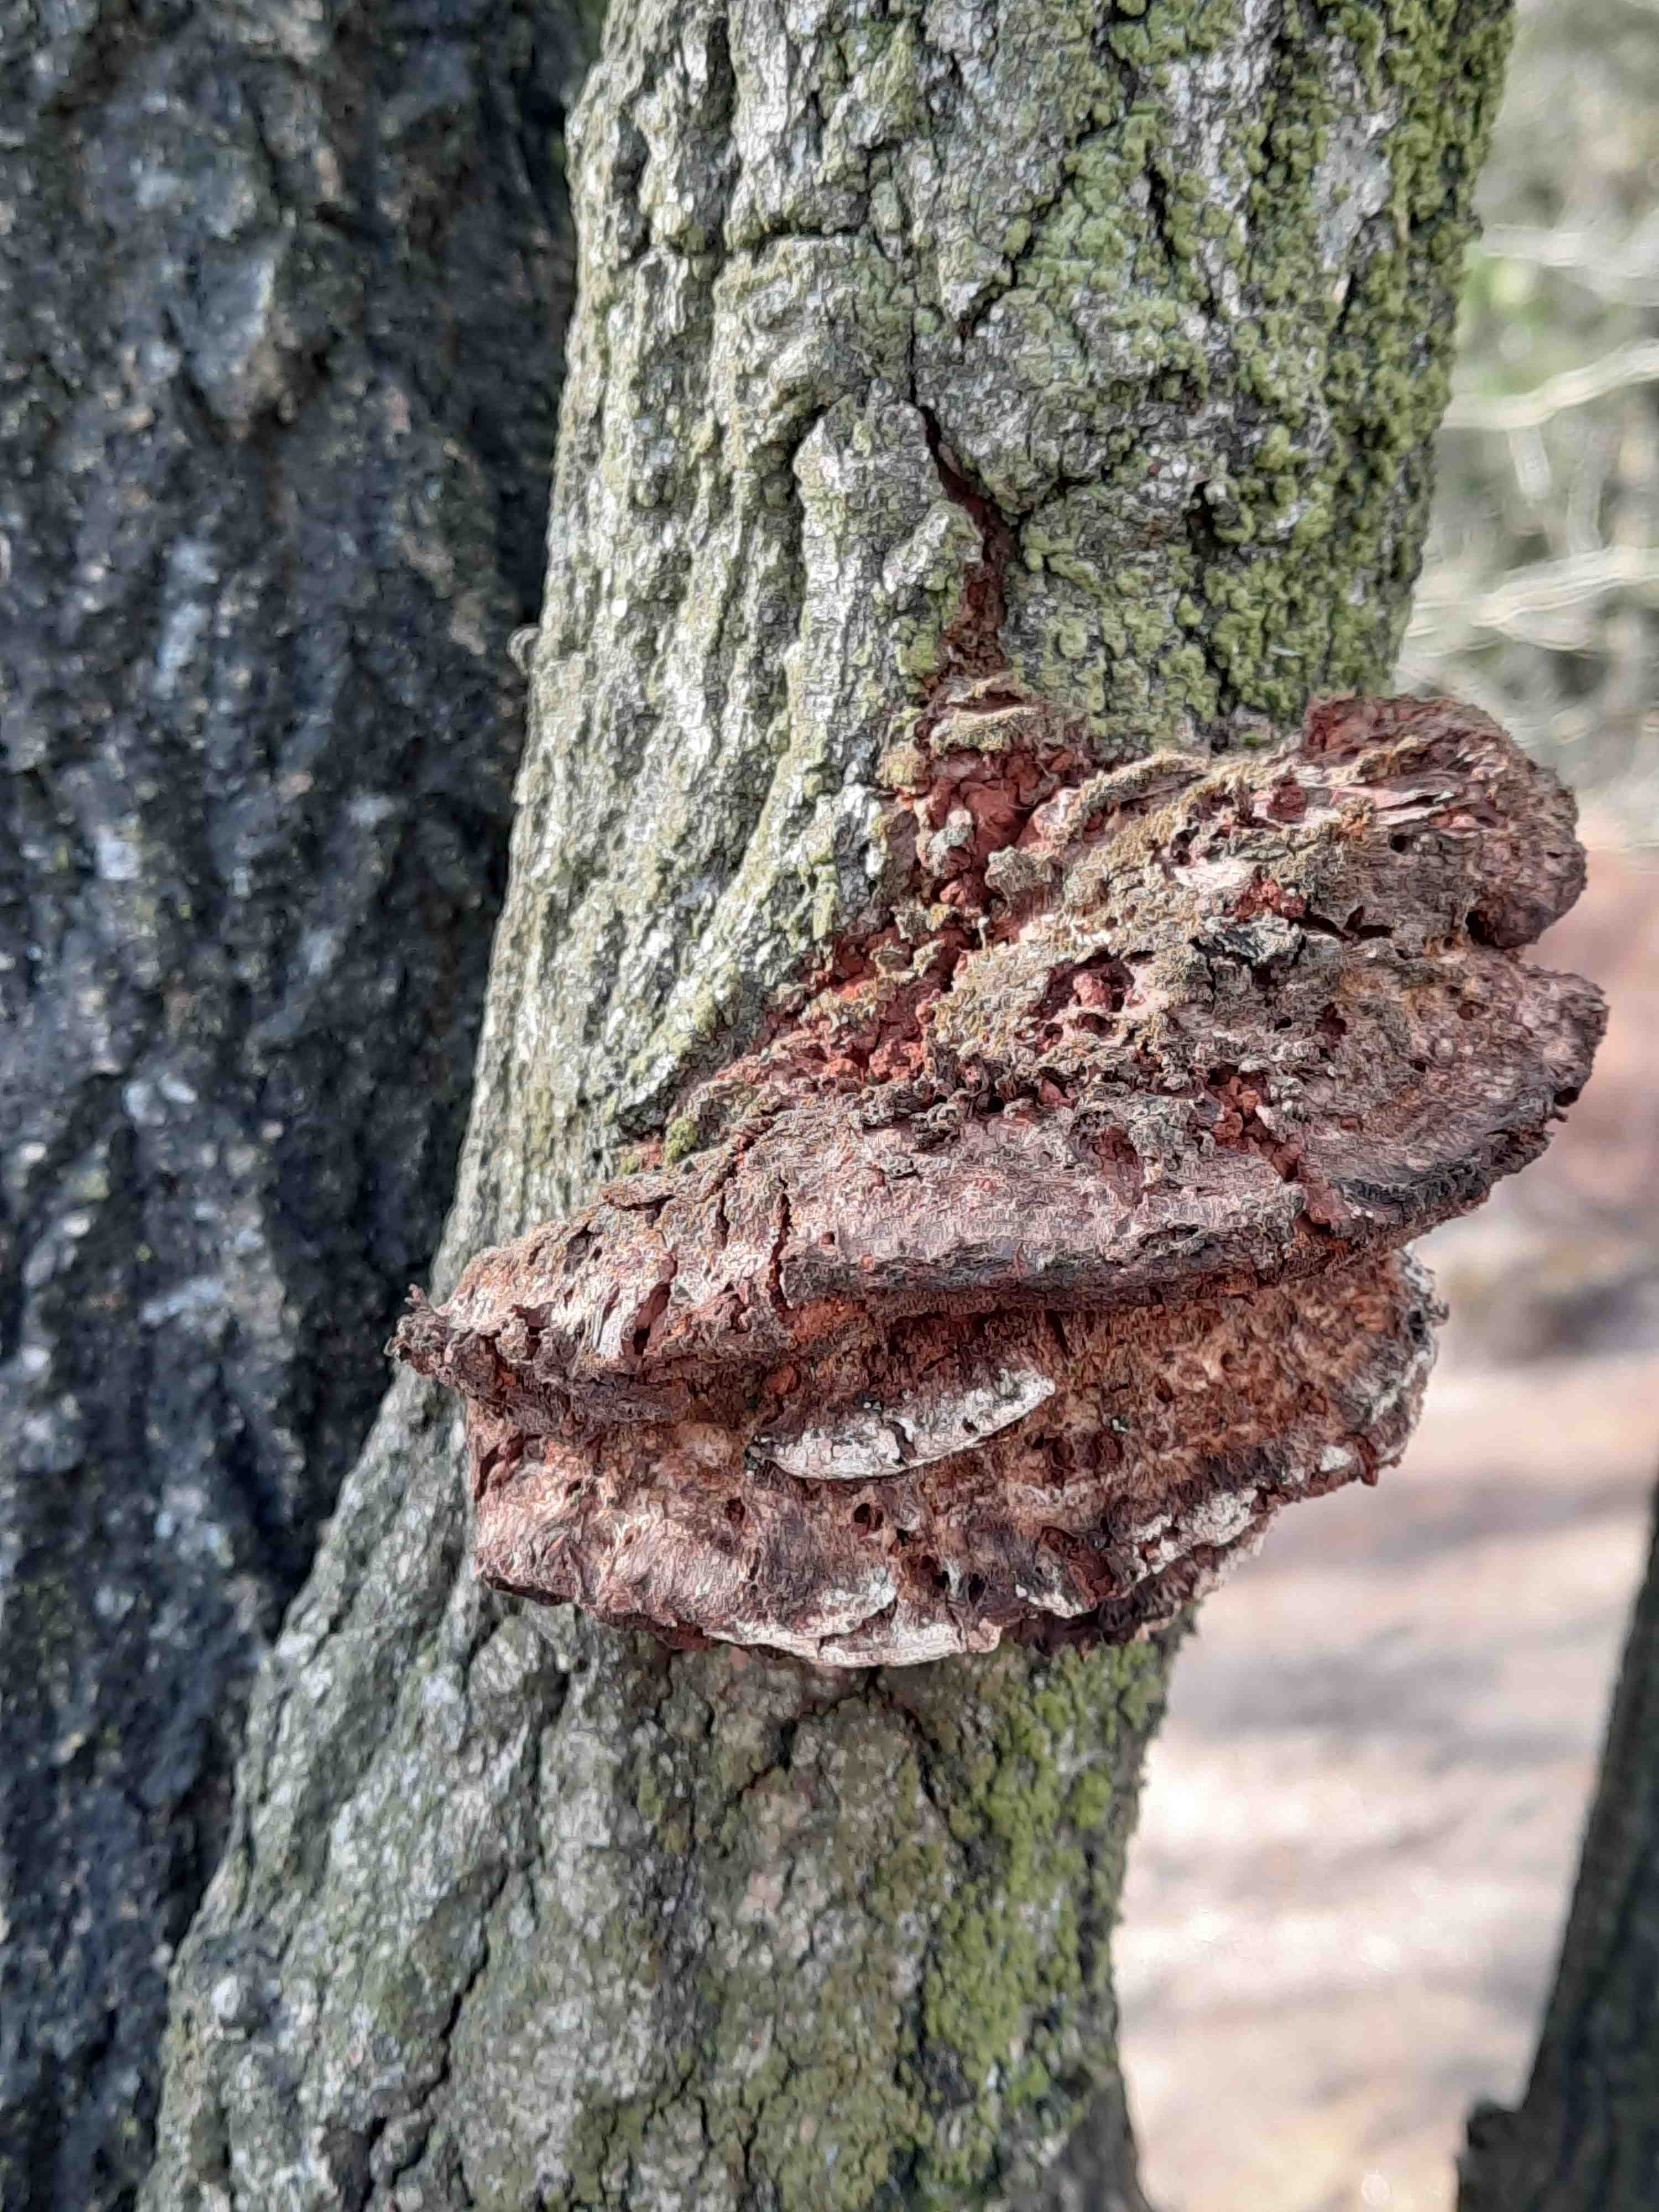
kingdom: Fungi
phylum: Basidiomycota
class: Agaricomycetes
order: Hymenochaetales
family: Hymenochaetaceae
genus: Inocutis
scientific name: Inocutis rheades
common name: ræve-spejlporesvamp
